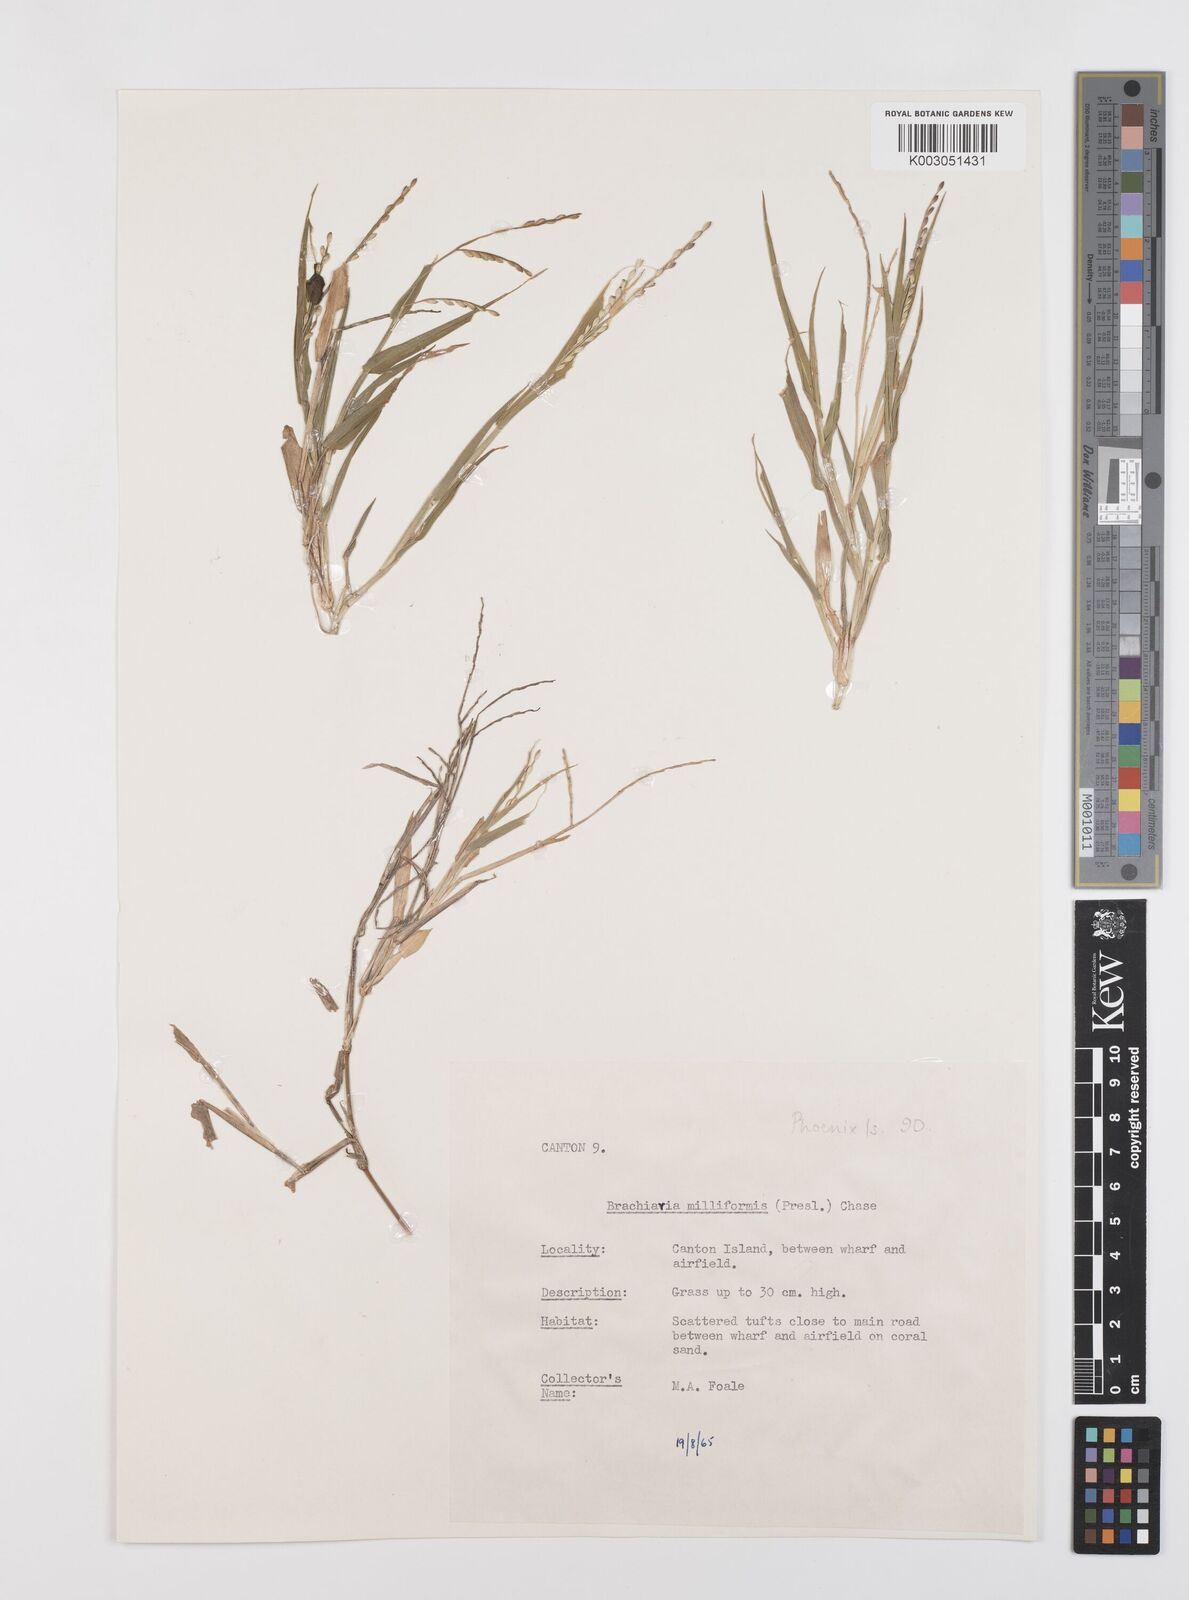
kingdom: Plantae
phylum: Tracheophyta
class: Liliopsida
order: Poales
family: Poaceae
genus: Urochloa
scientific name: Urochloa subquadripara
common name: Armgrass millet
